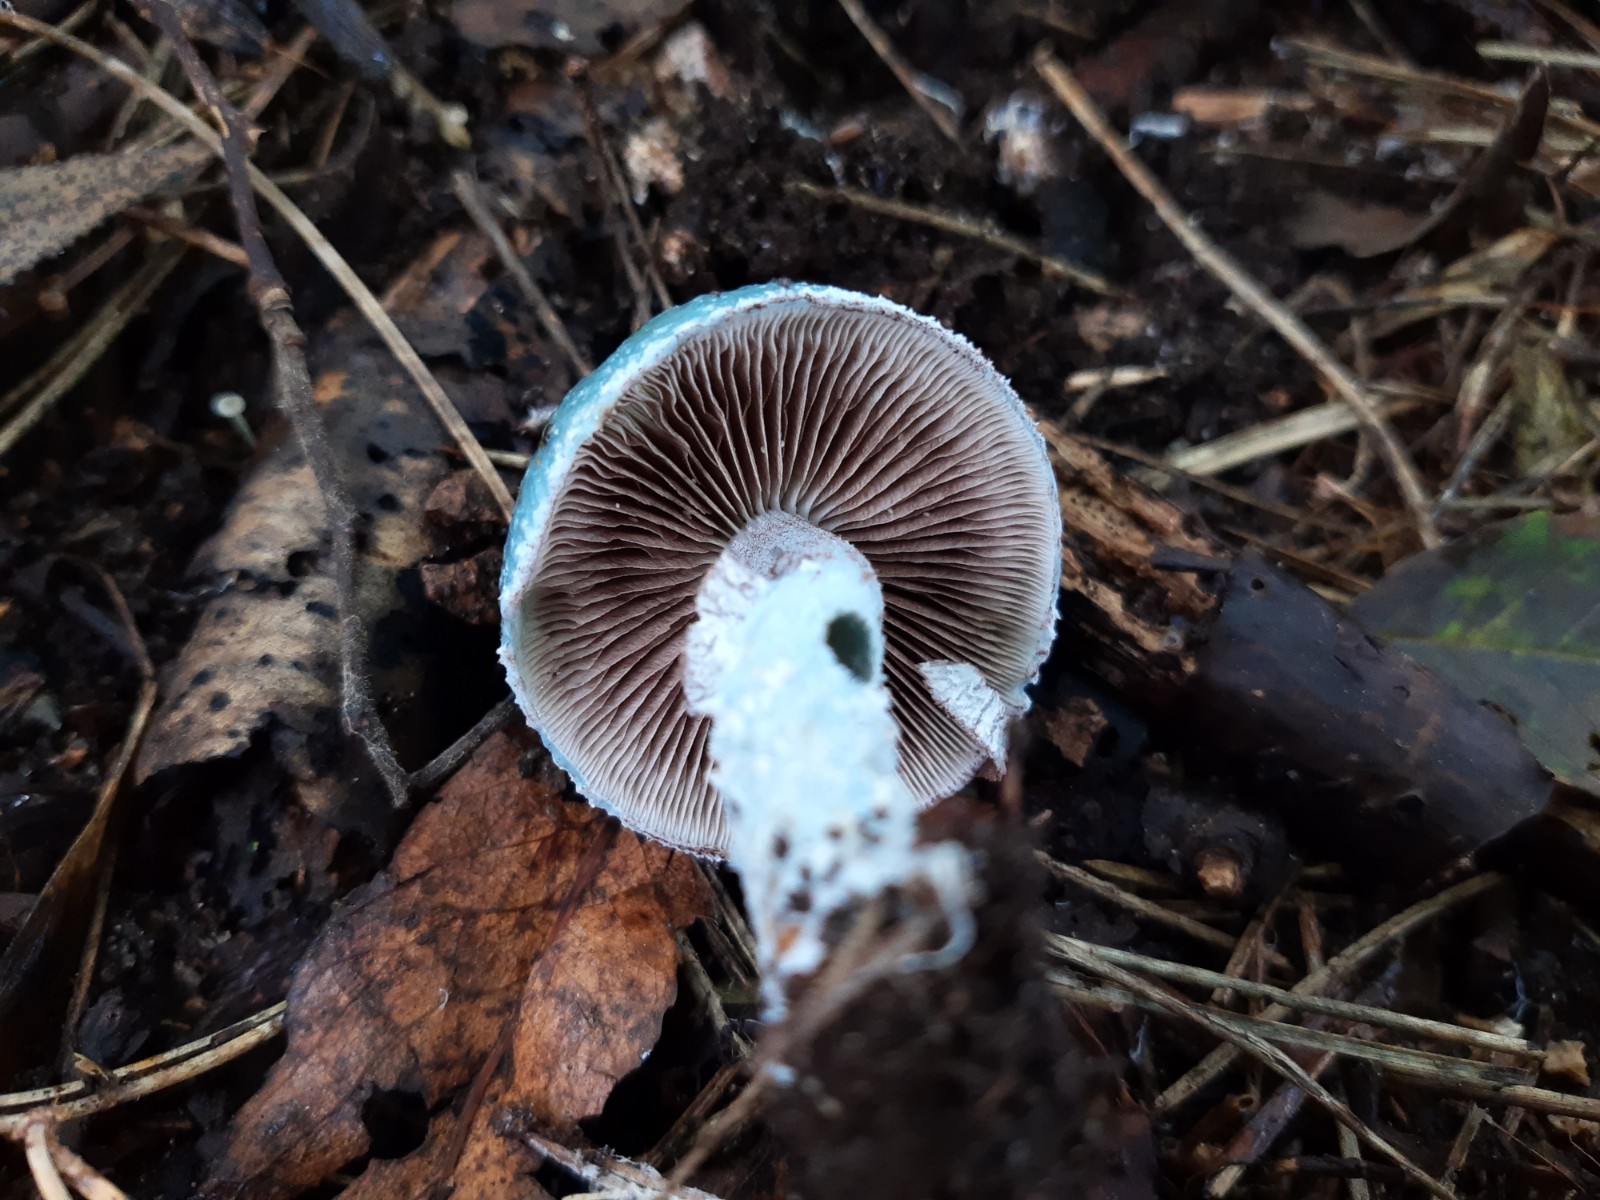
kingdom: Fungi
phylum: Basidiomycota
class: Agaricomycetes
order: Agaricales
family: Strophariaceae
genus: Stropharia
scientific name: Stropharia cyanea
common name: blågrøn bredblad
